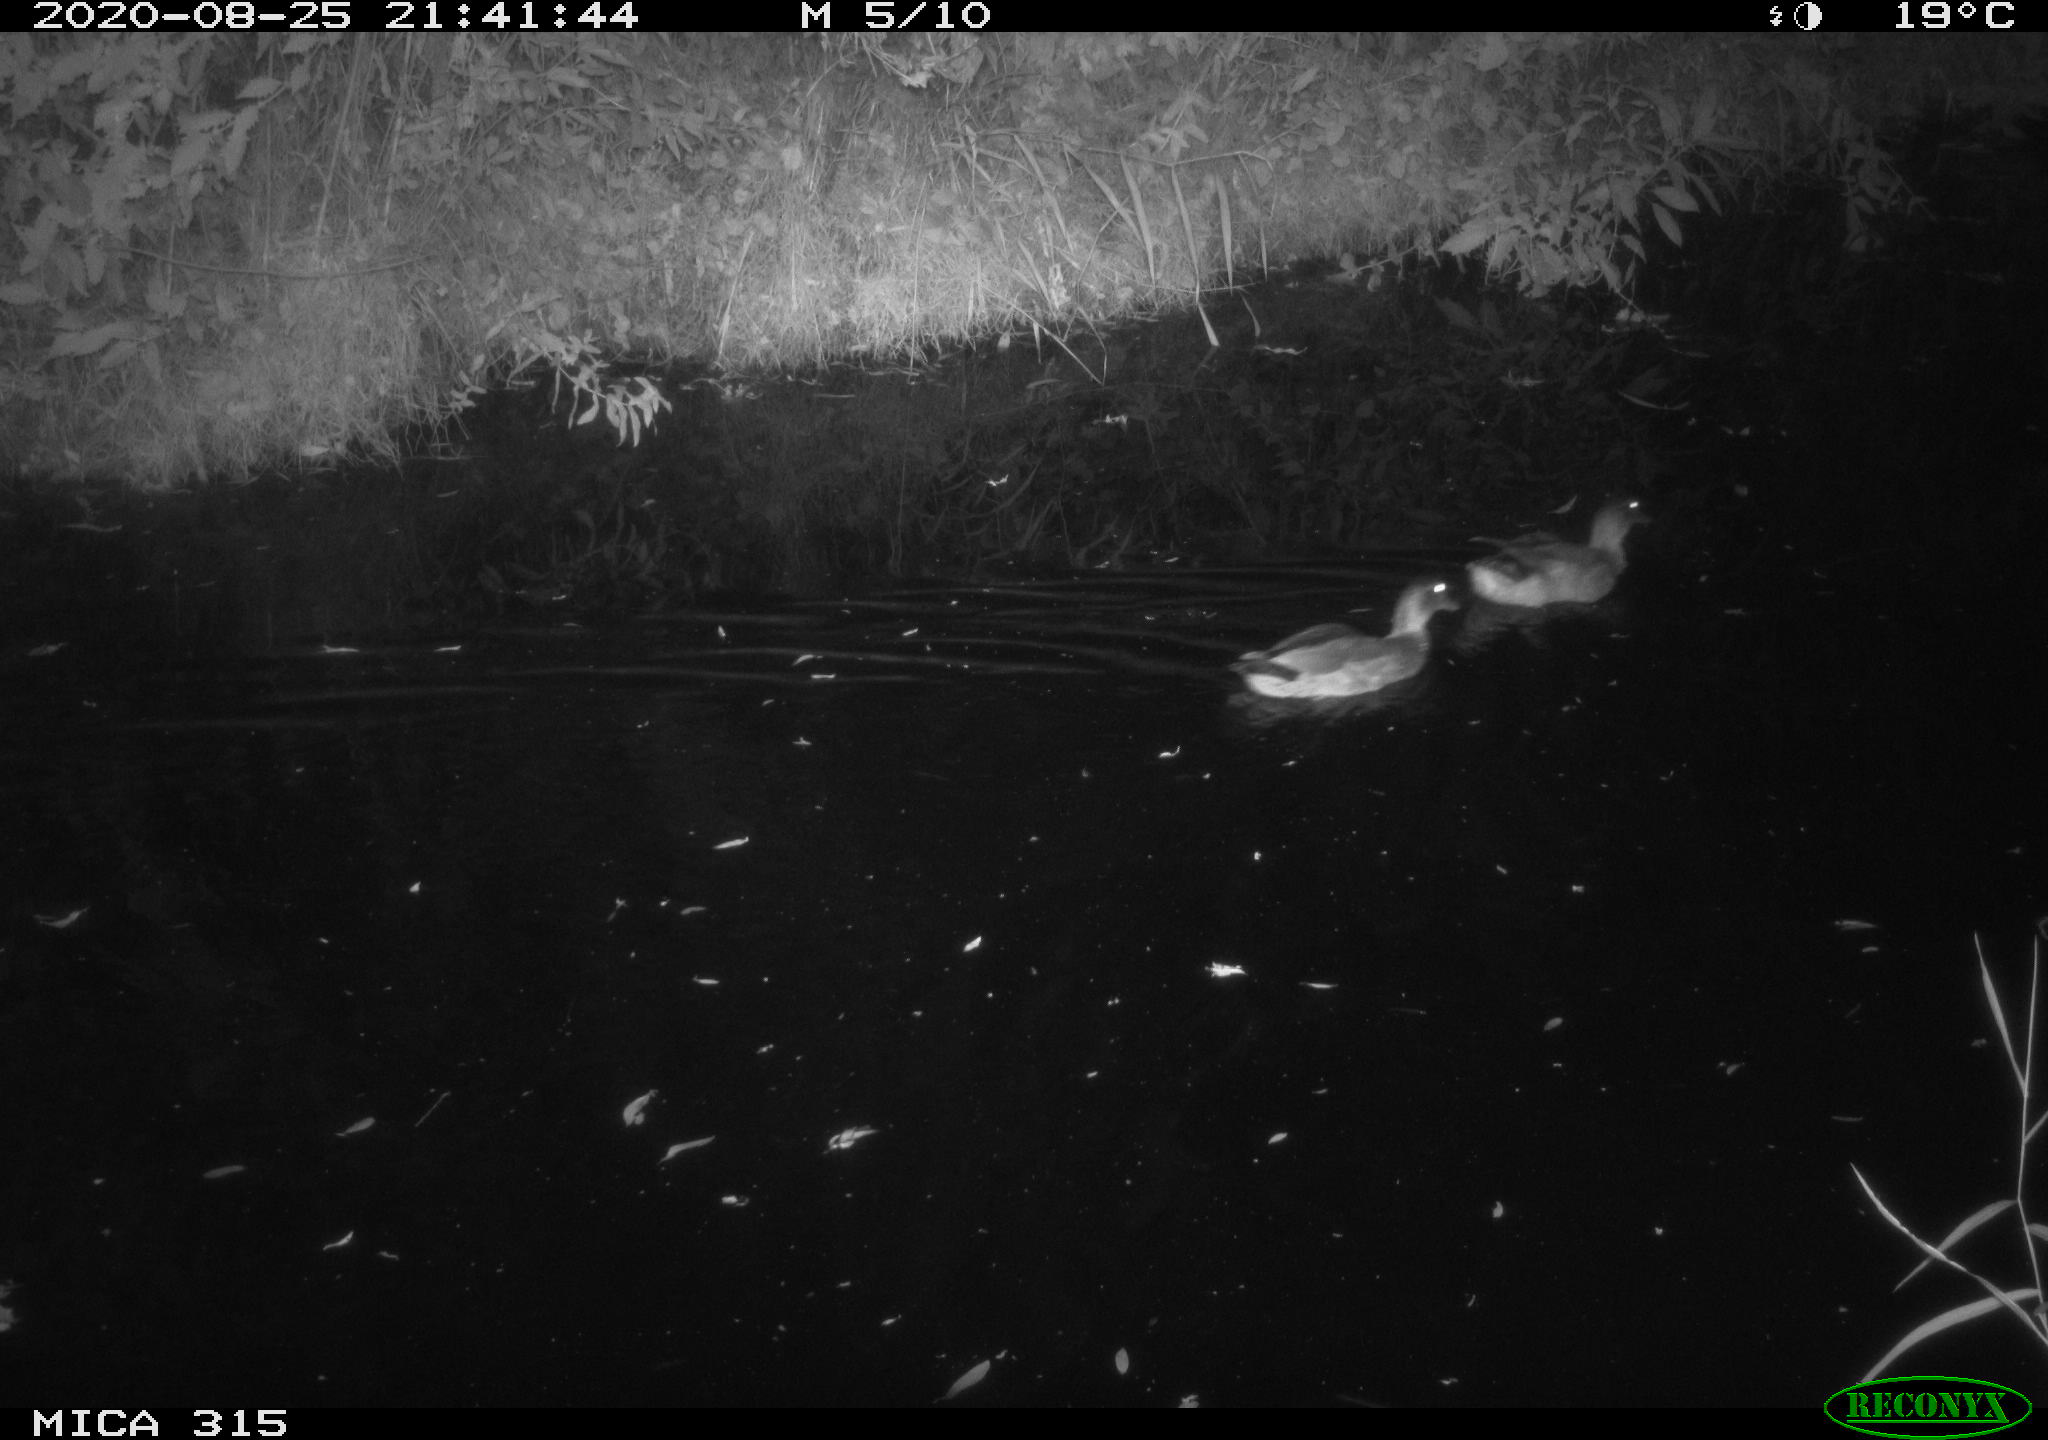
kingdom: Animalia
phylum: Chordata
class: Aves
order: Anseriformes
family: Anatidae
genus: Anas
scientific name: Anas platyrhynchos
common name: Mallard
